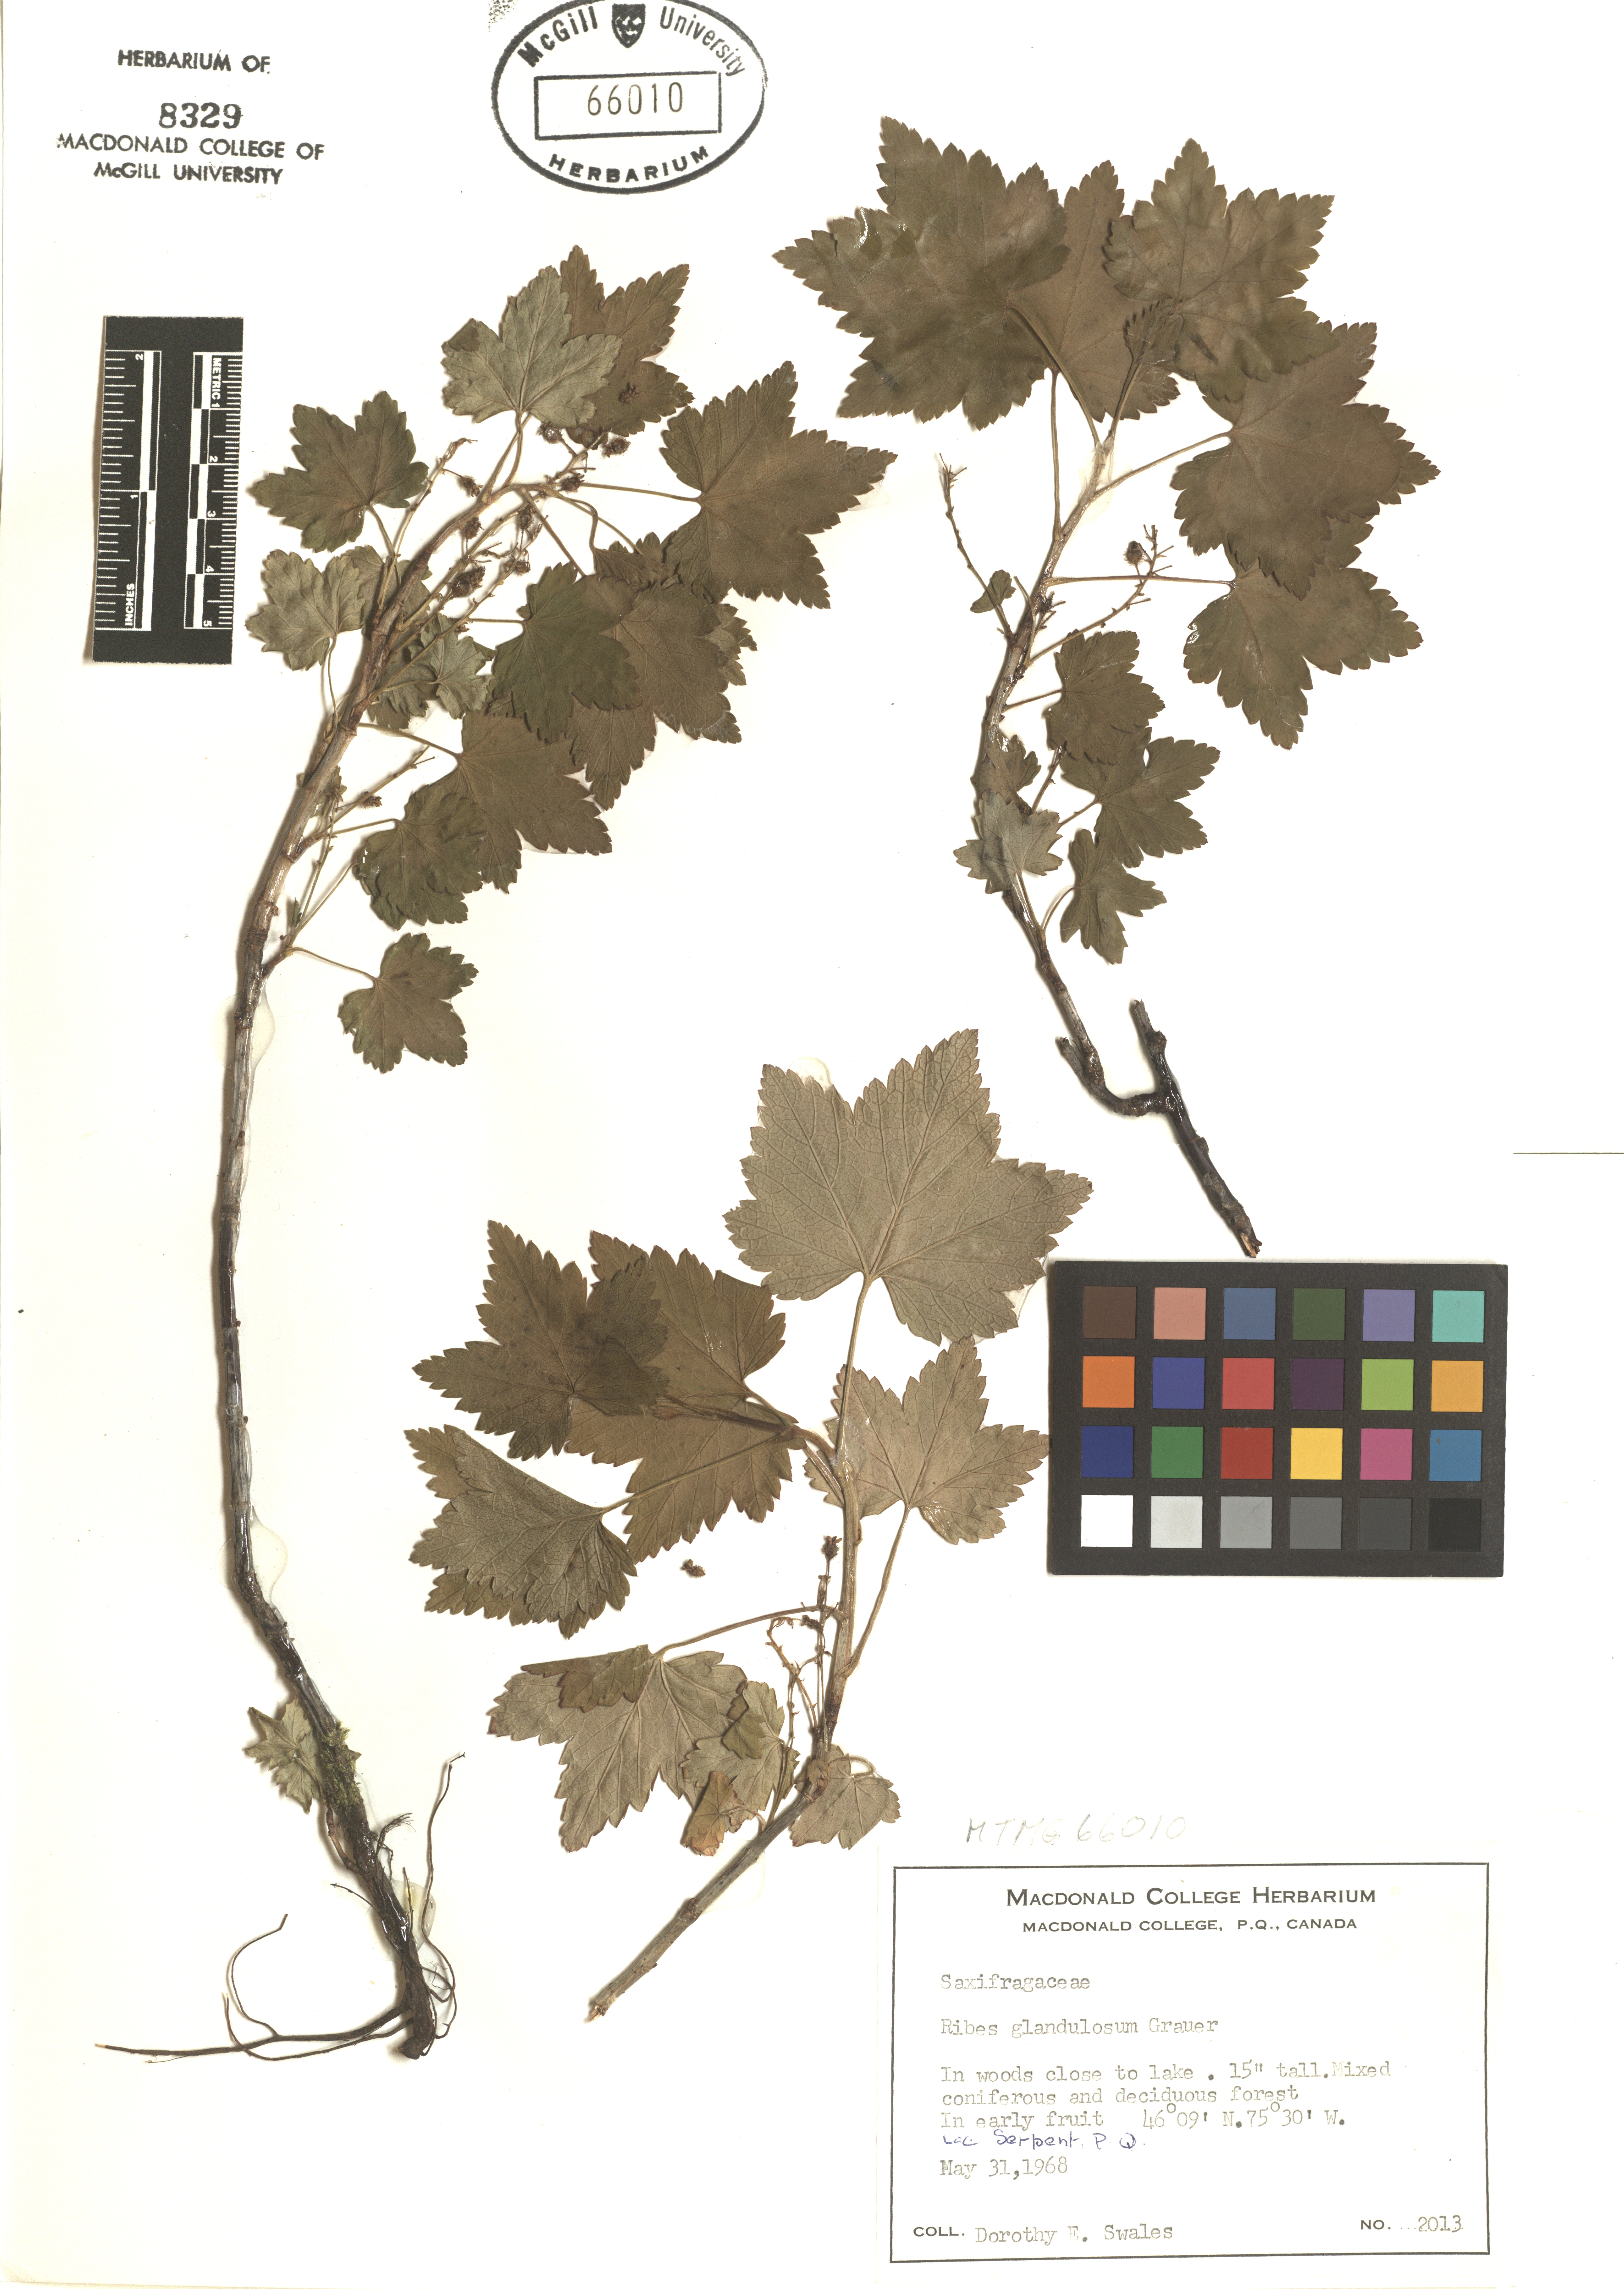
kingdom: Plantae
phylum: Tracheophyta
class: Magnoliopsida
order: Saxifragales
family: Grossulariaceae
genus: Ribes
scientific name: Ribes glandulosum
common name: Skunk currant
